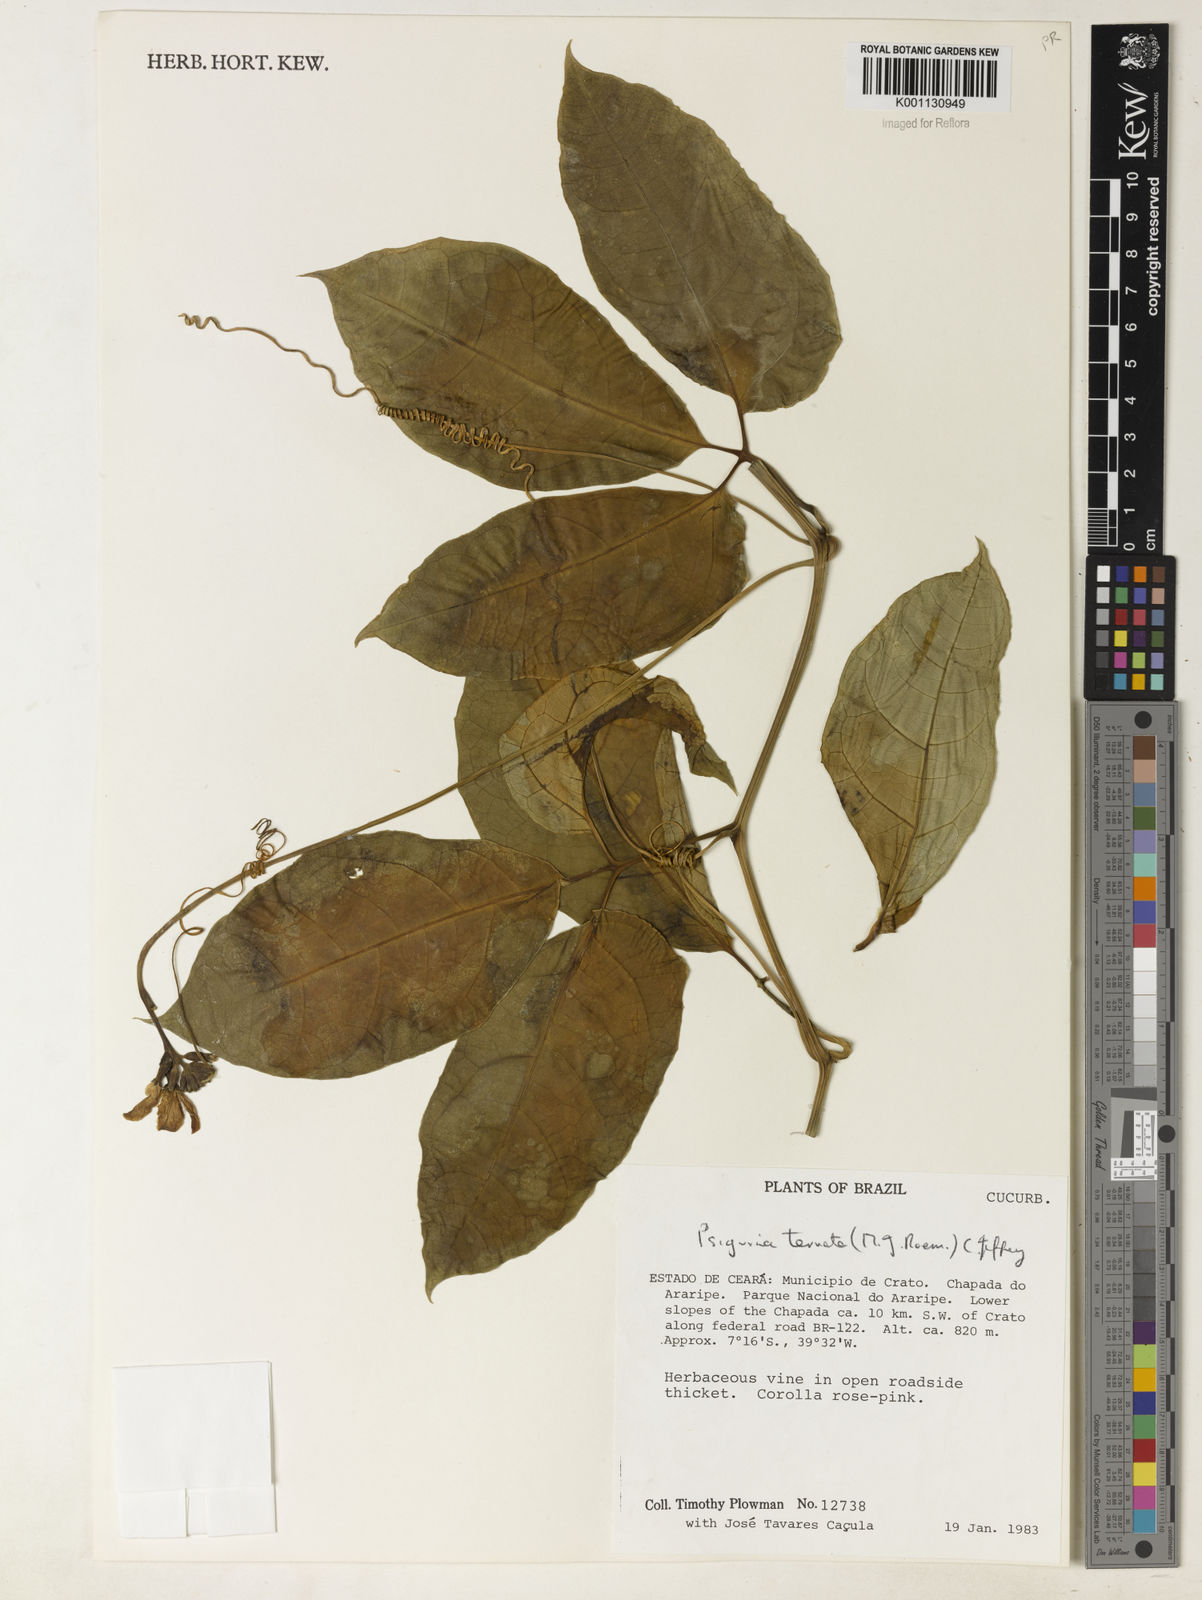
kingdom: Plantae
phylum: Tracheophyta
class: Magnoliopsida
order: Cucurbitales
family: Cucurbitaceae
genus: Psiguria
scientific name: Psiguria ternata
